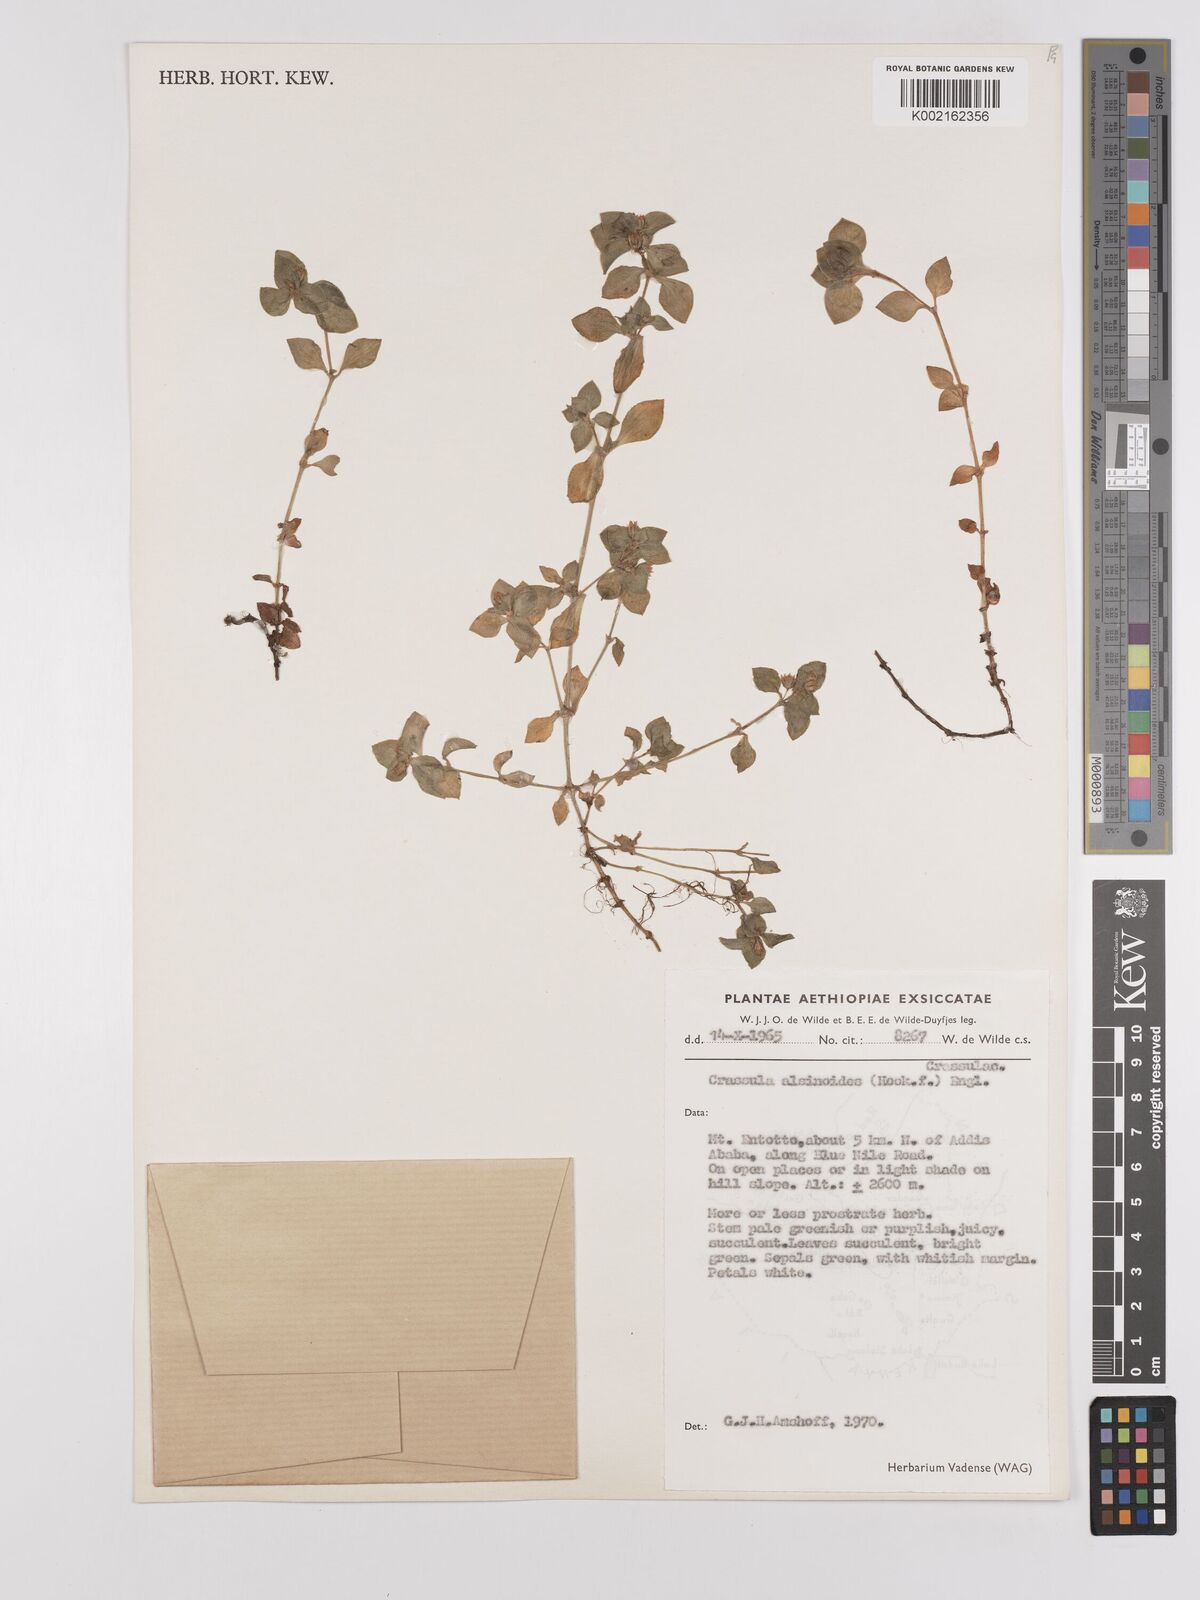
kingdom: Plantae
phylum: Tracheophyta
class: Magnoliopsida
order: Saxifragales
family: Crassulaceae
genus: Crassula
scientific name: Crassula alsinoides
